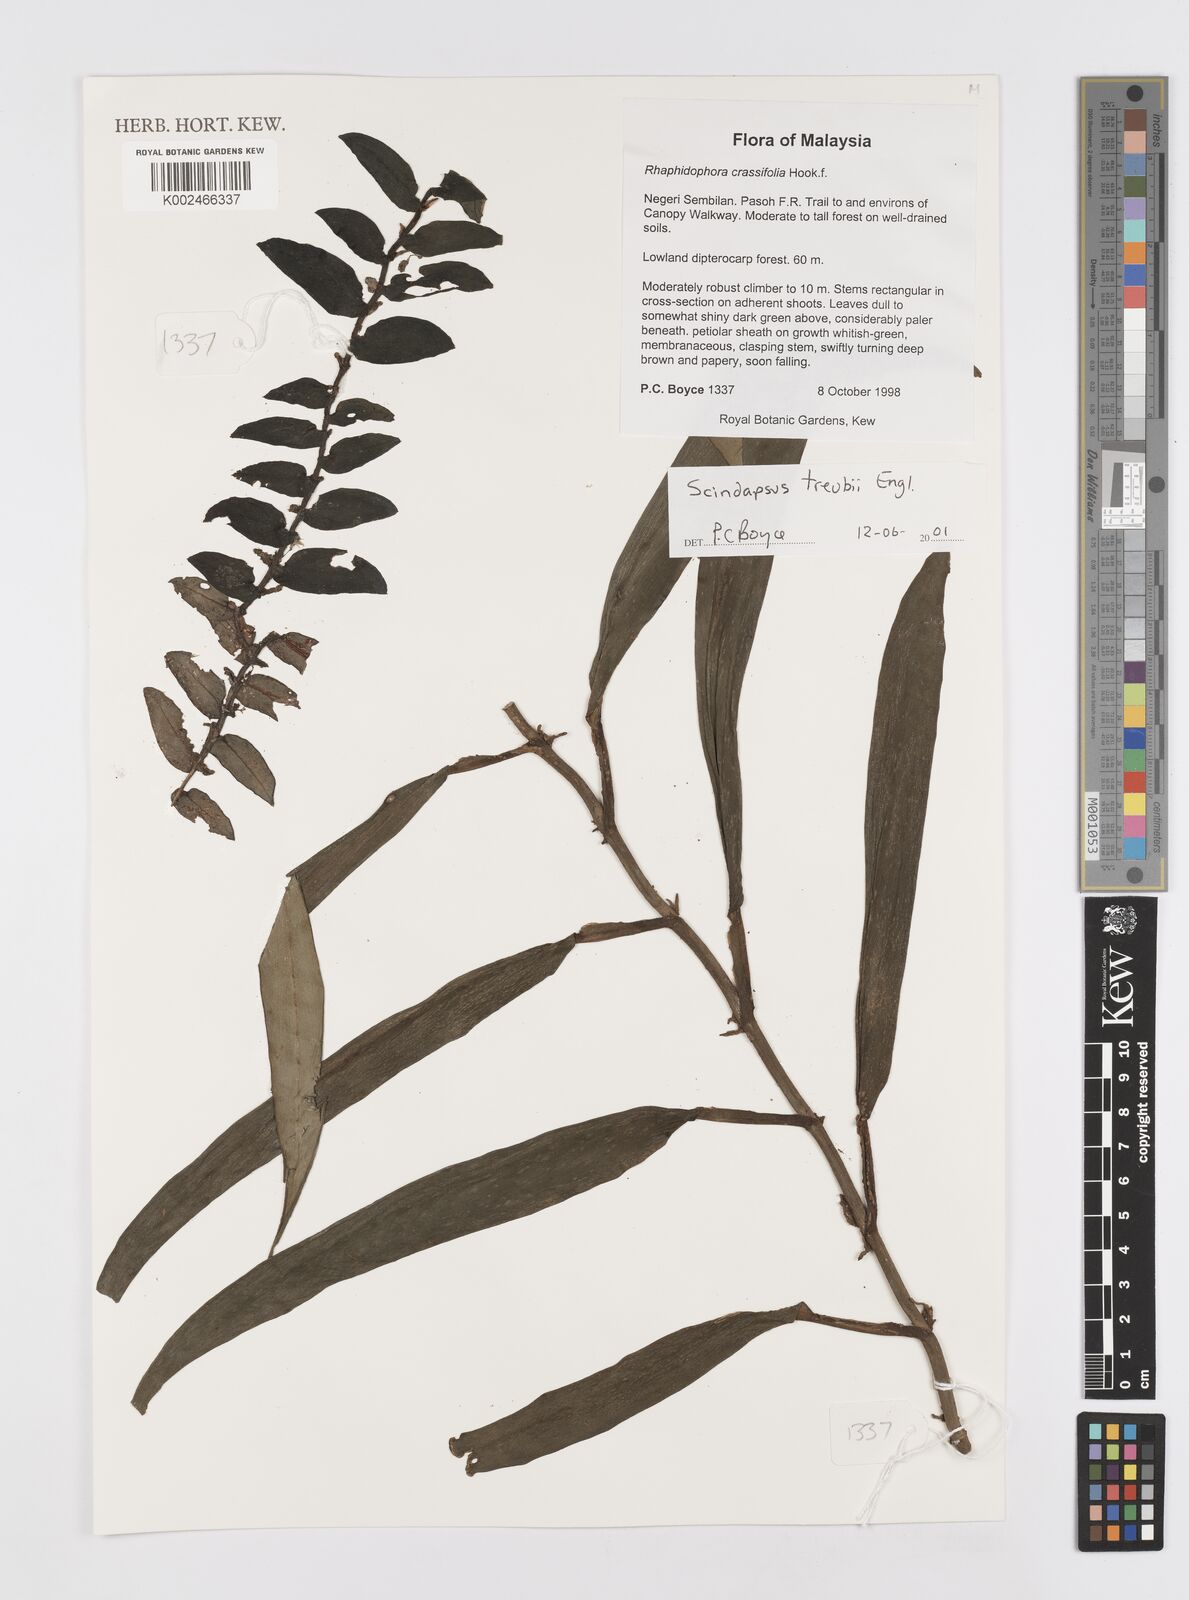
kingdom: Plantae
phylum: Tracheophyta
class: Liliopsida
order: Alismatales
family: Araceae
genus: Scindapsus
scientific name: Scindapsus treubii
